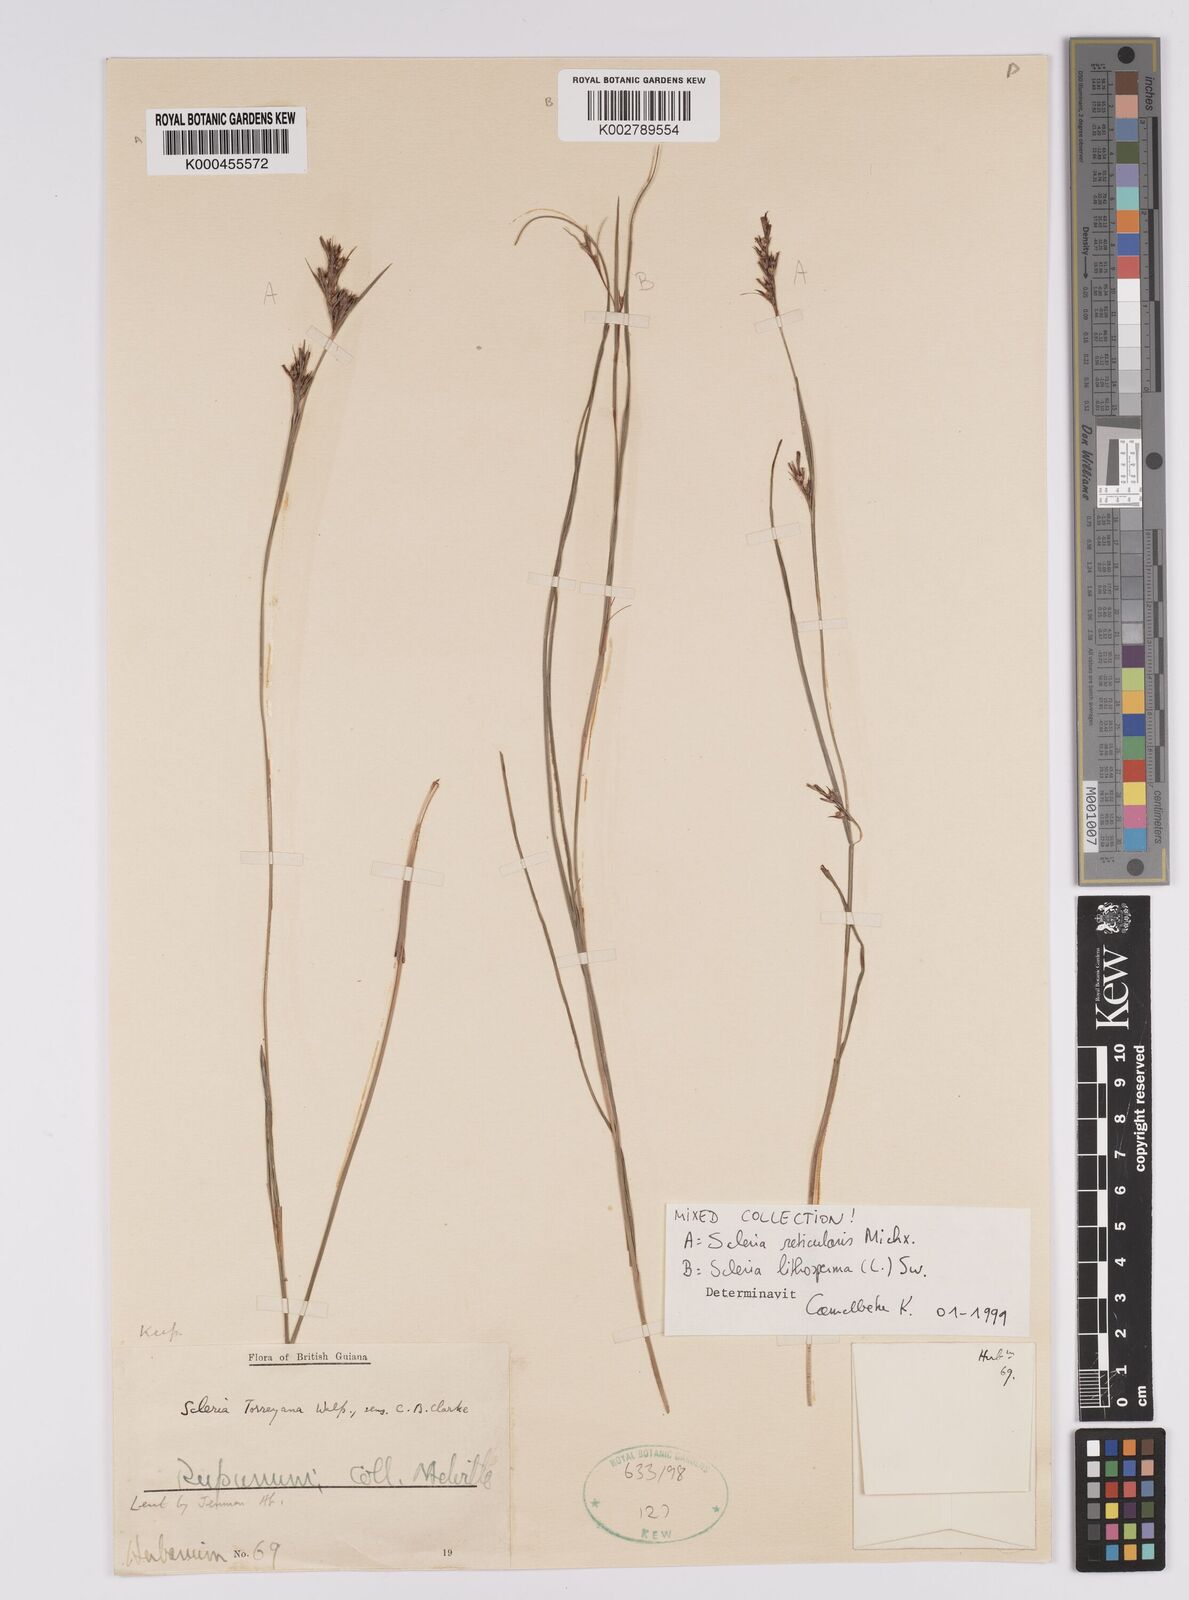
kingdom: Plantae
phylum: Tracheophyta
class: Liliopsida
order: Poales
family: Cyperaceae
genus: Scleria
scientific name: Scleria
